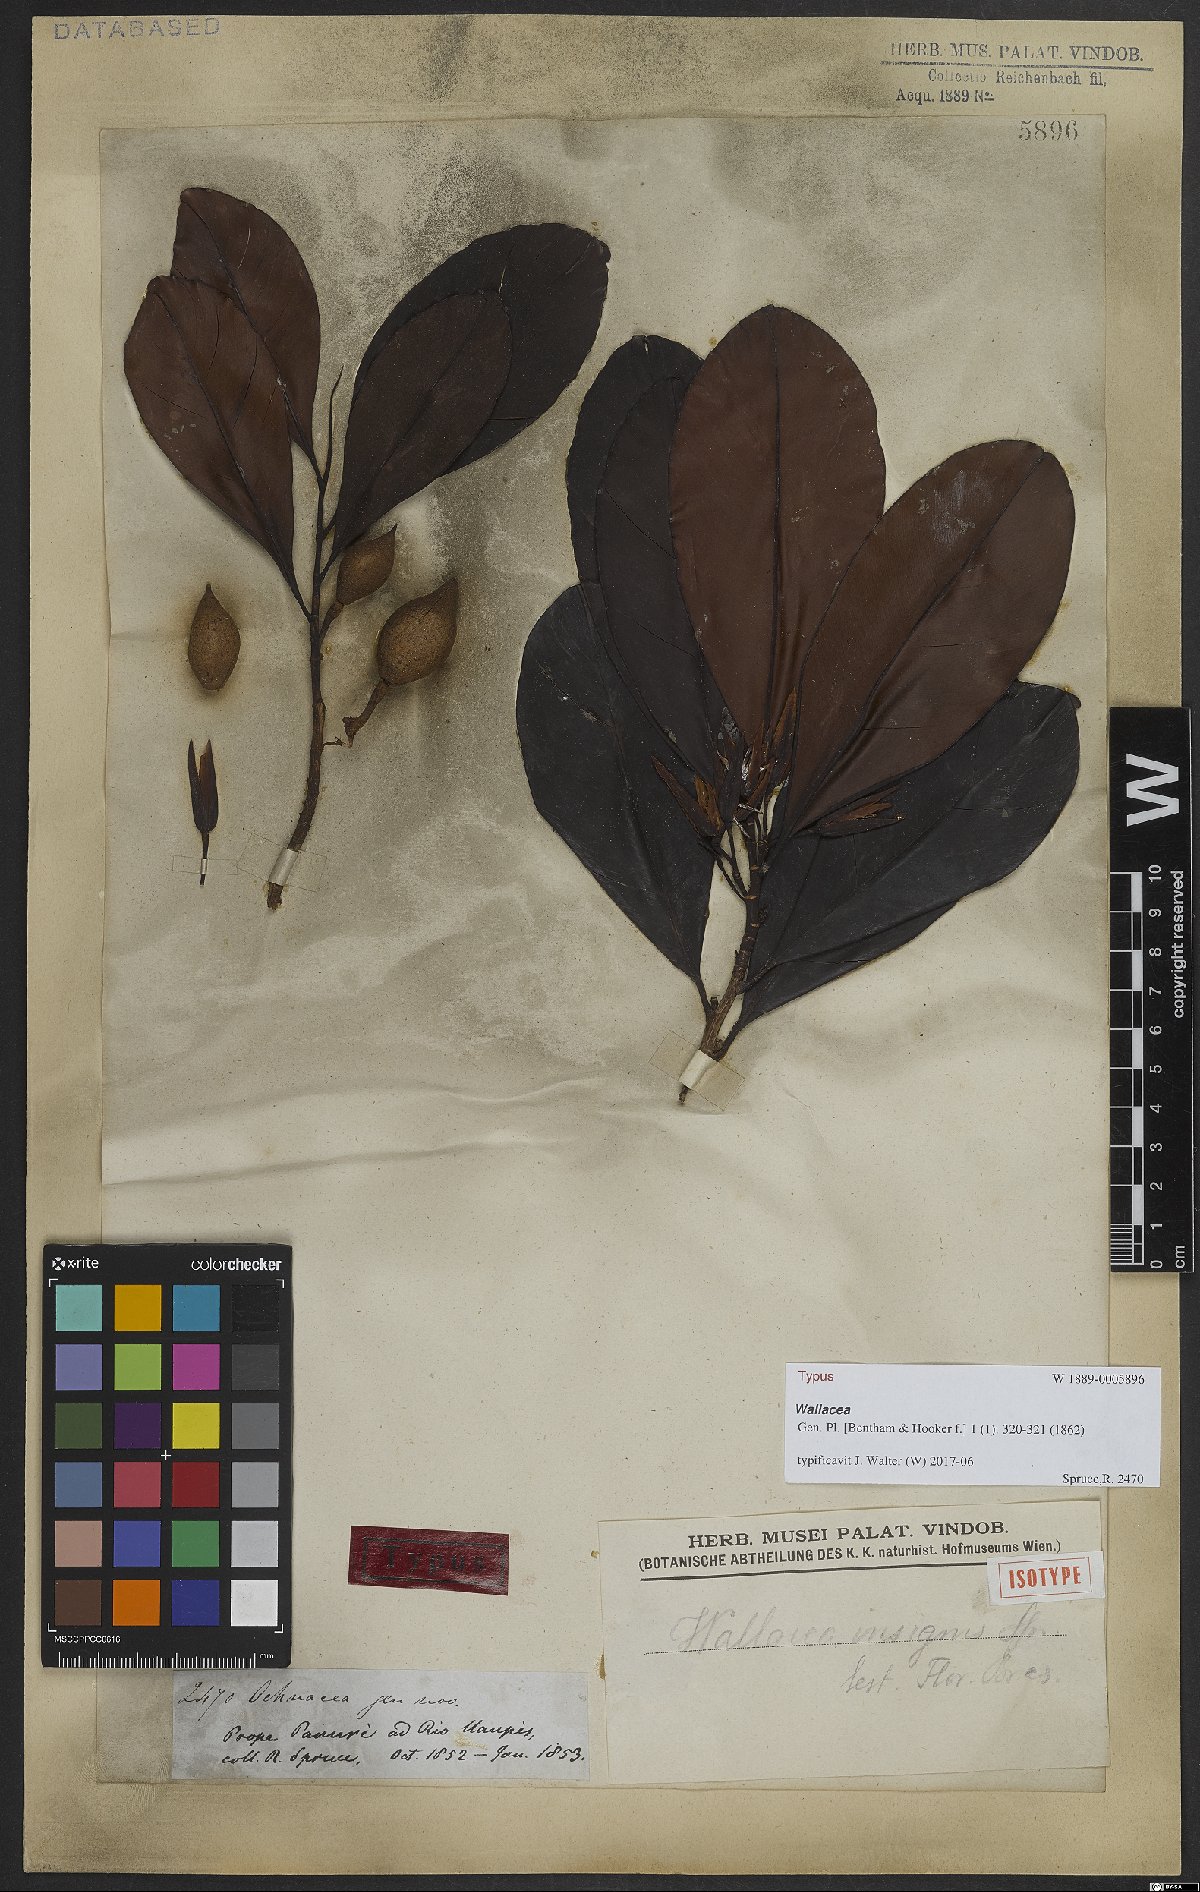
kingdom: Plantae
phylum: Tracheophyta
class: Magnoliopsida
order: Malpighiales
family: Ochnaceae
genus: Wallacea
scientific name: Wallacea insignis
